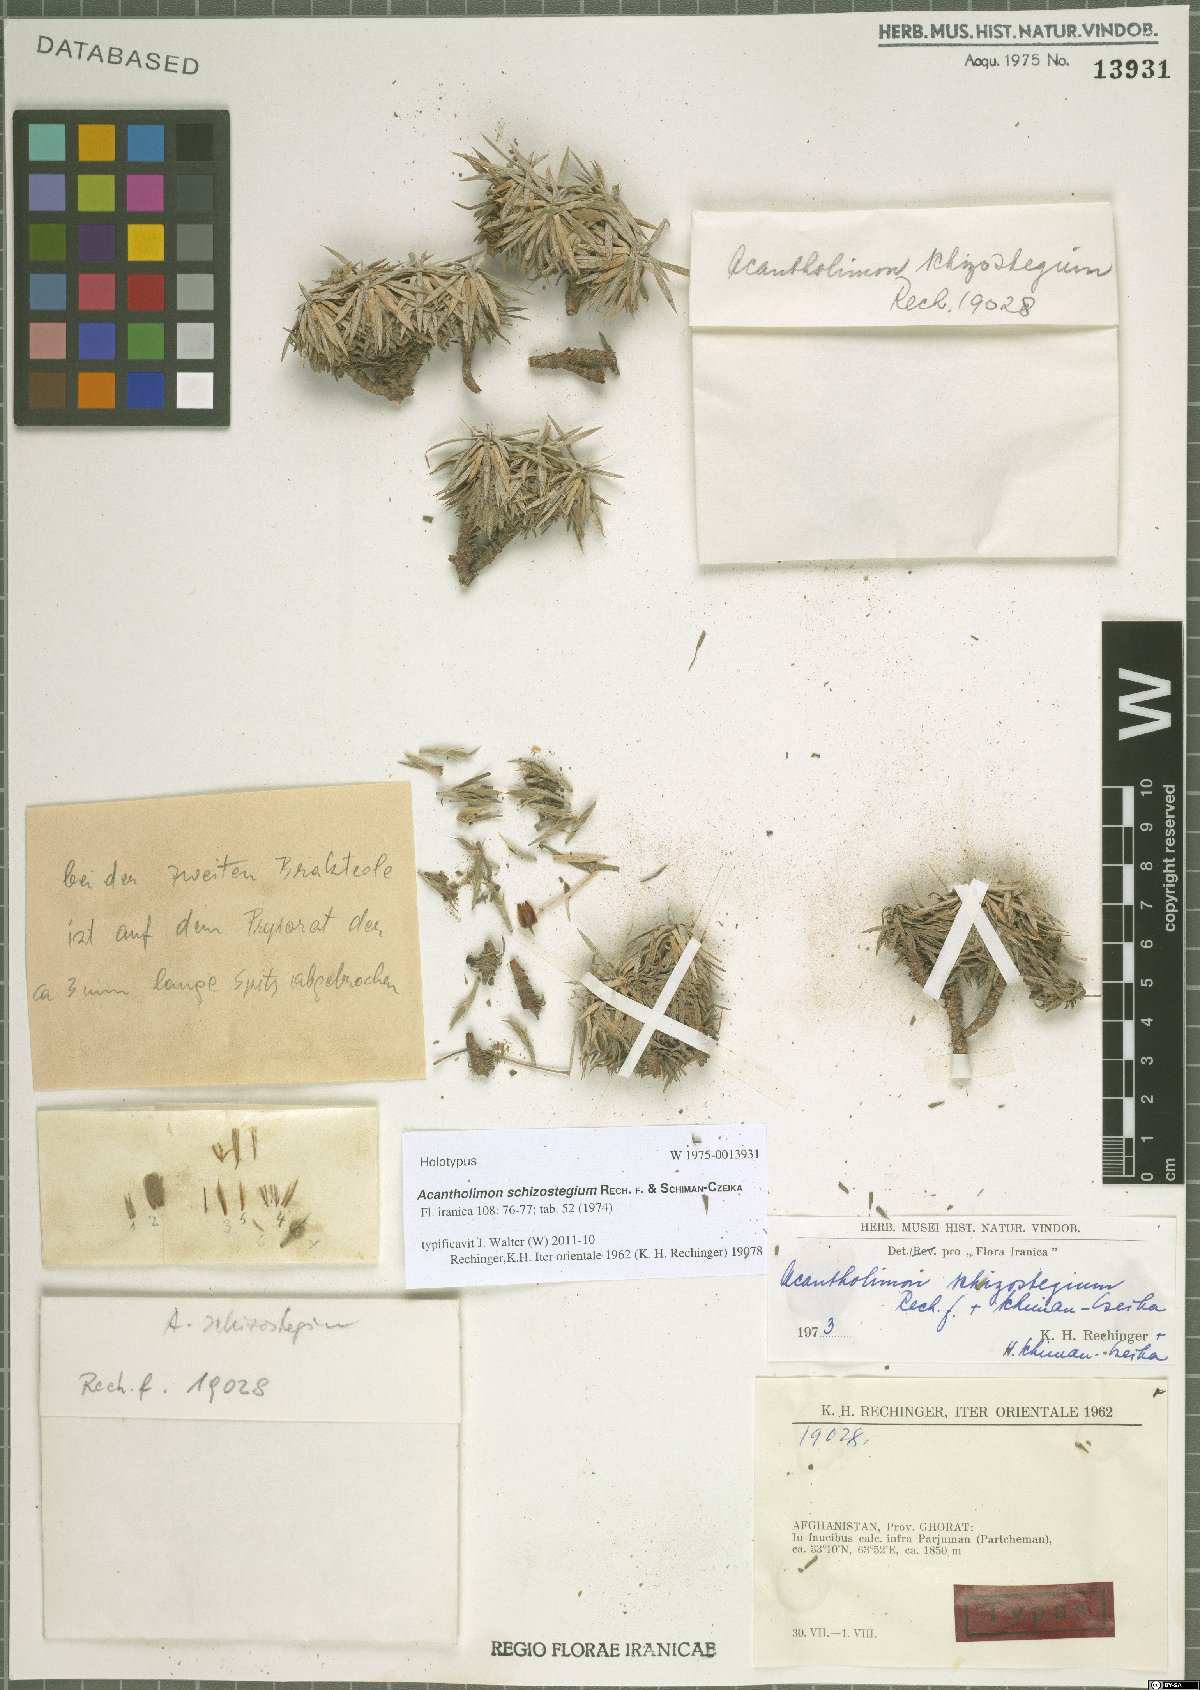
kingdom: Plantae
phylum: Tracheophyta
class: Magnoliopsida
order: Caryophyllales
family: Plumbaginaceae
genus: Acantholimon
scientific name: Acantholimon schizostegium
